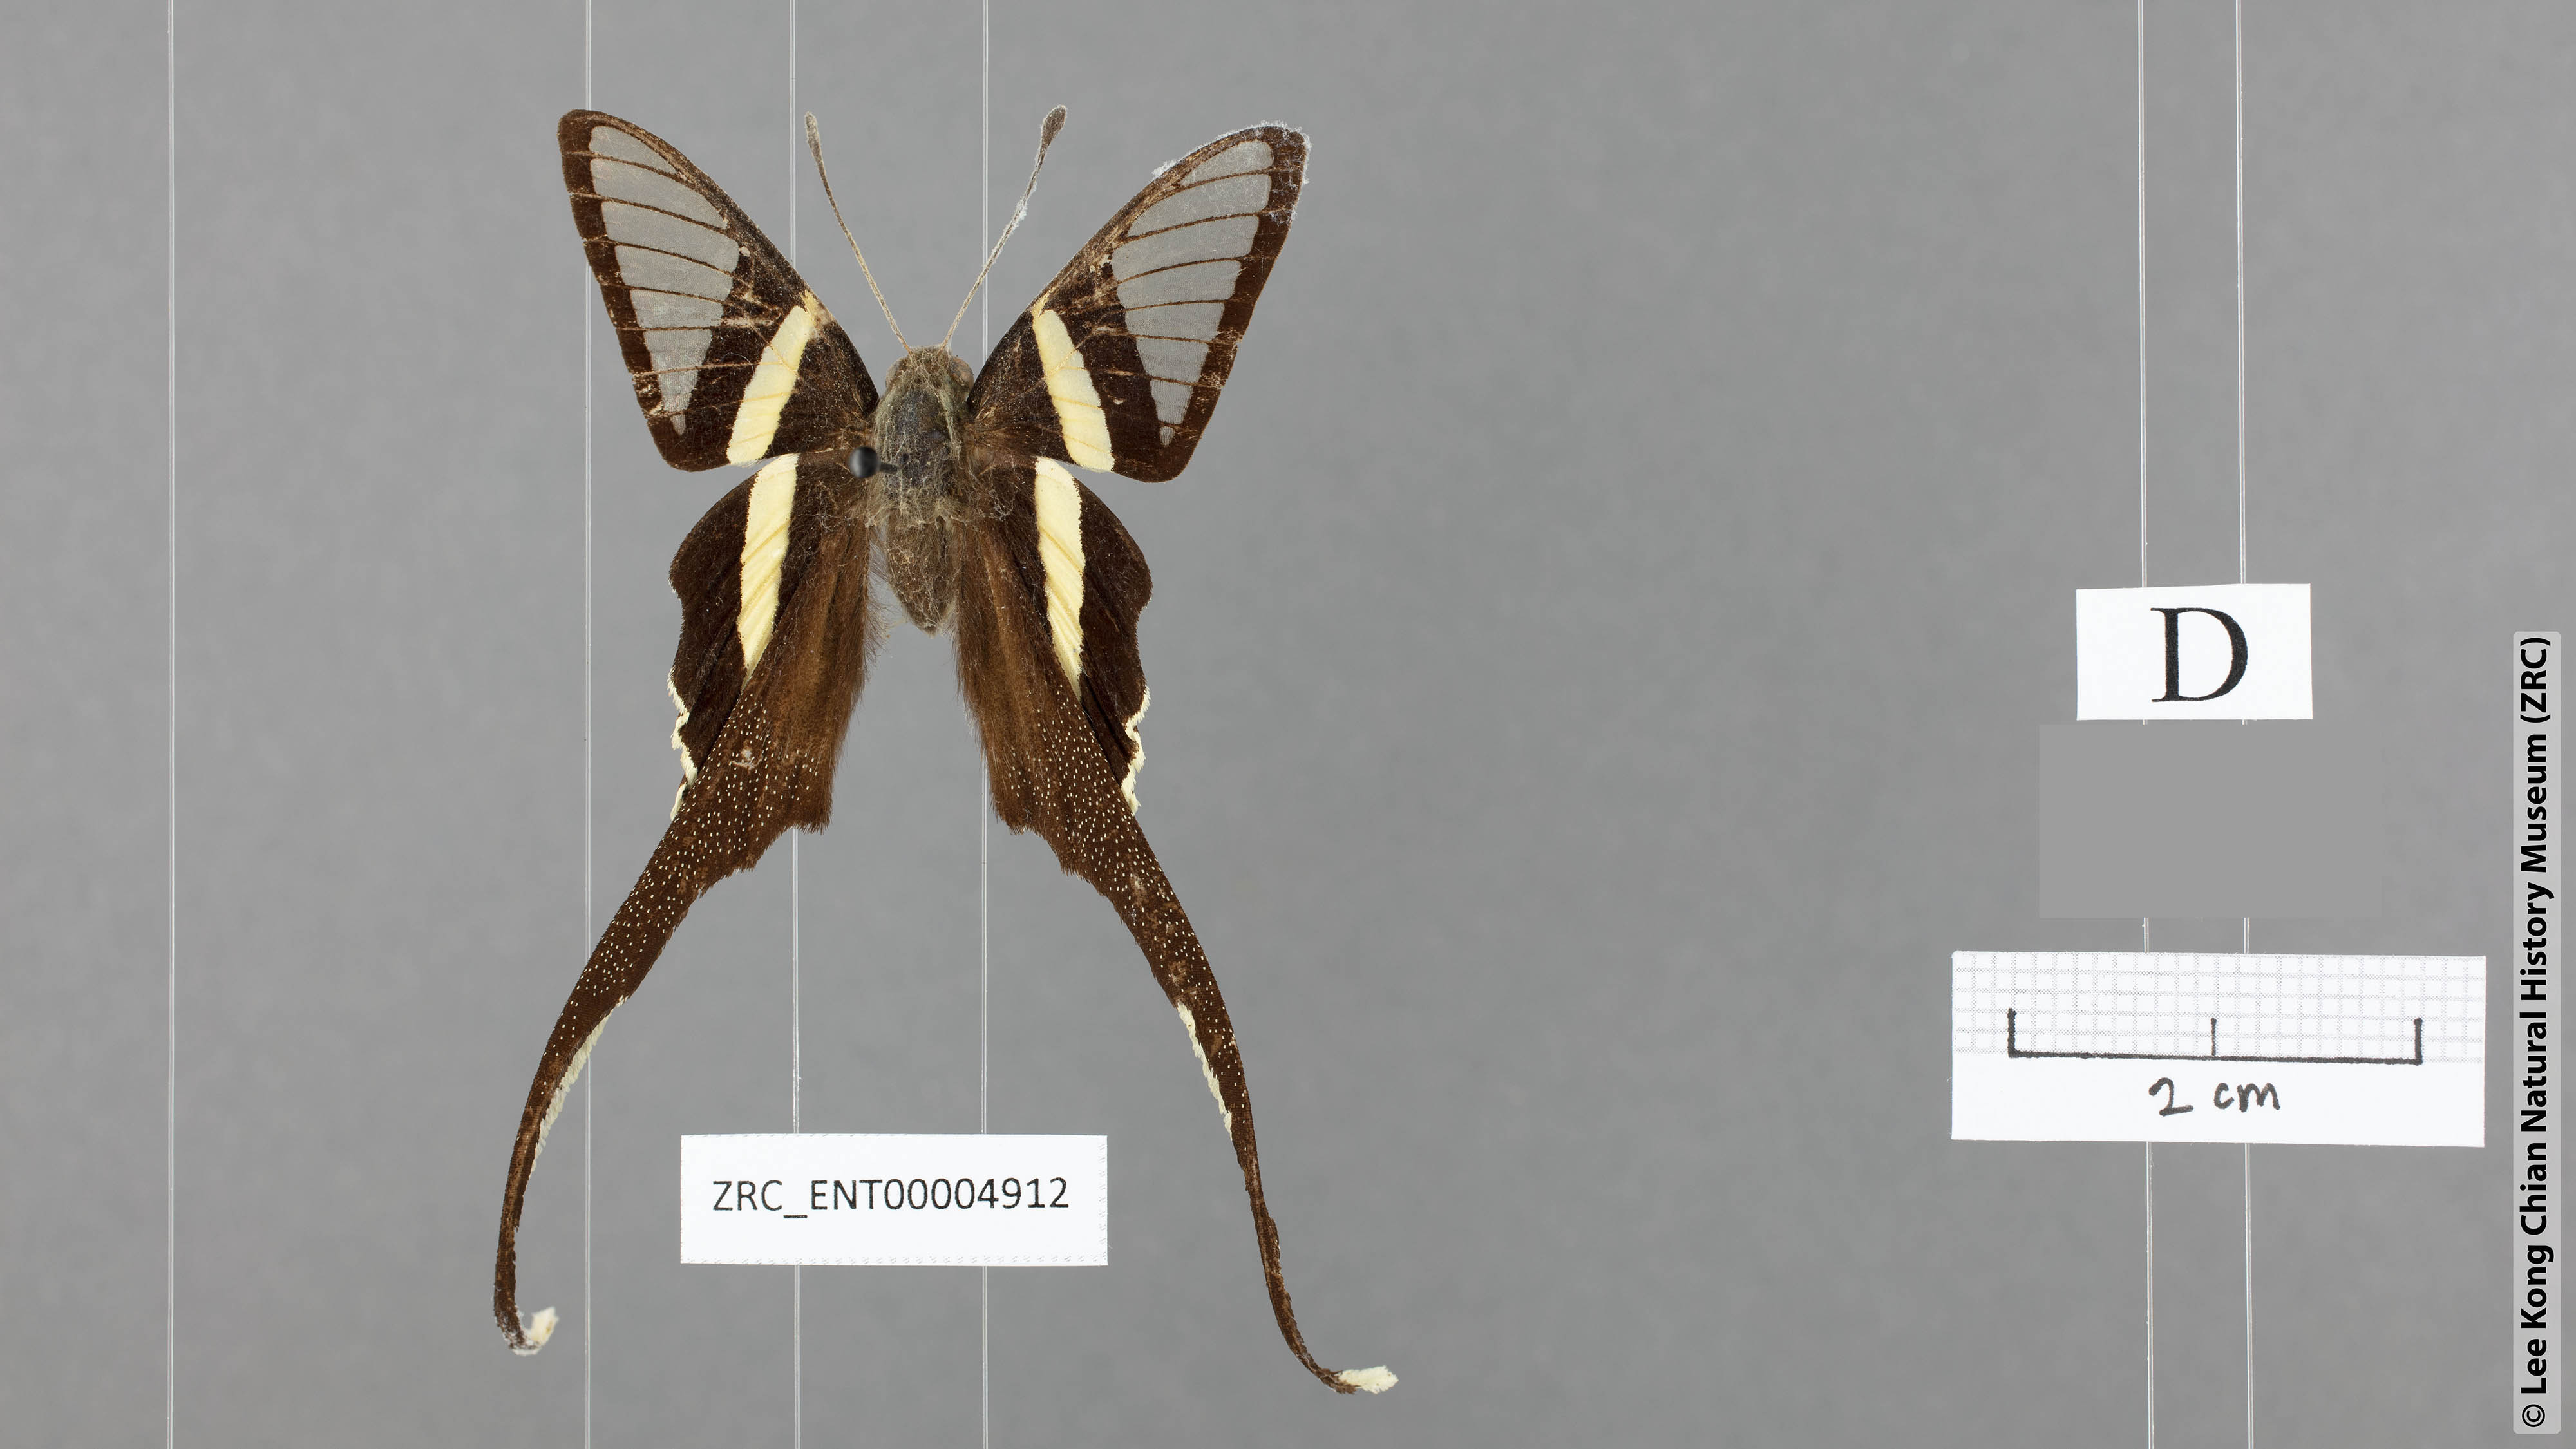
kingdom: Animalia
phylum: Arthropoda
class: Insecta
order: Lepidoptera
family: Papilionidae
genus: Lamproptera
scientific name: Lamproptera meges
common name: Green dragontail
